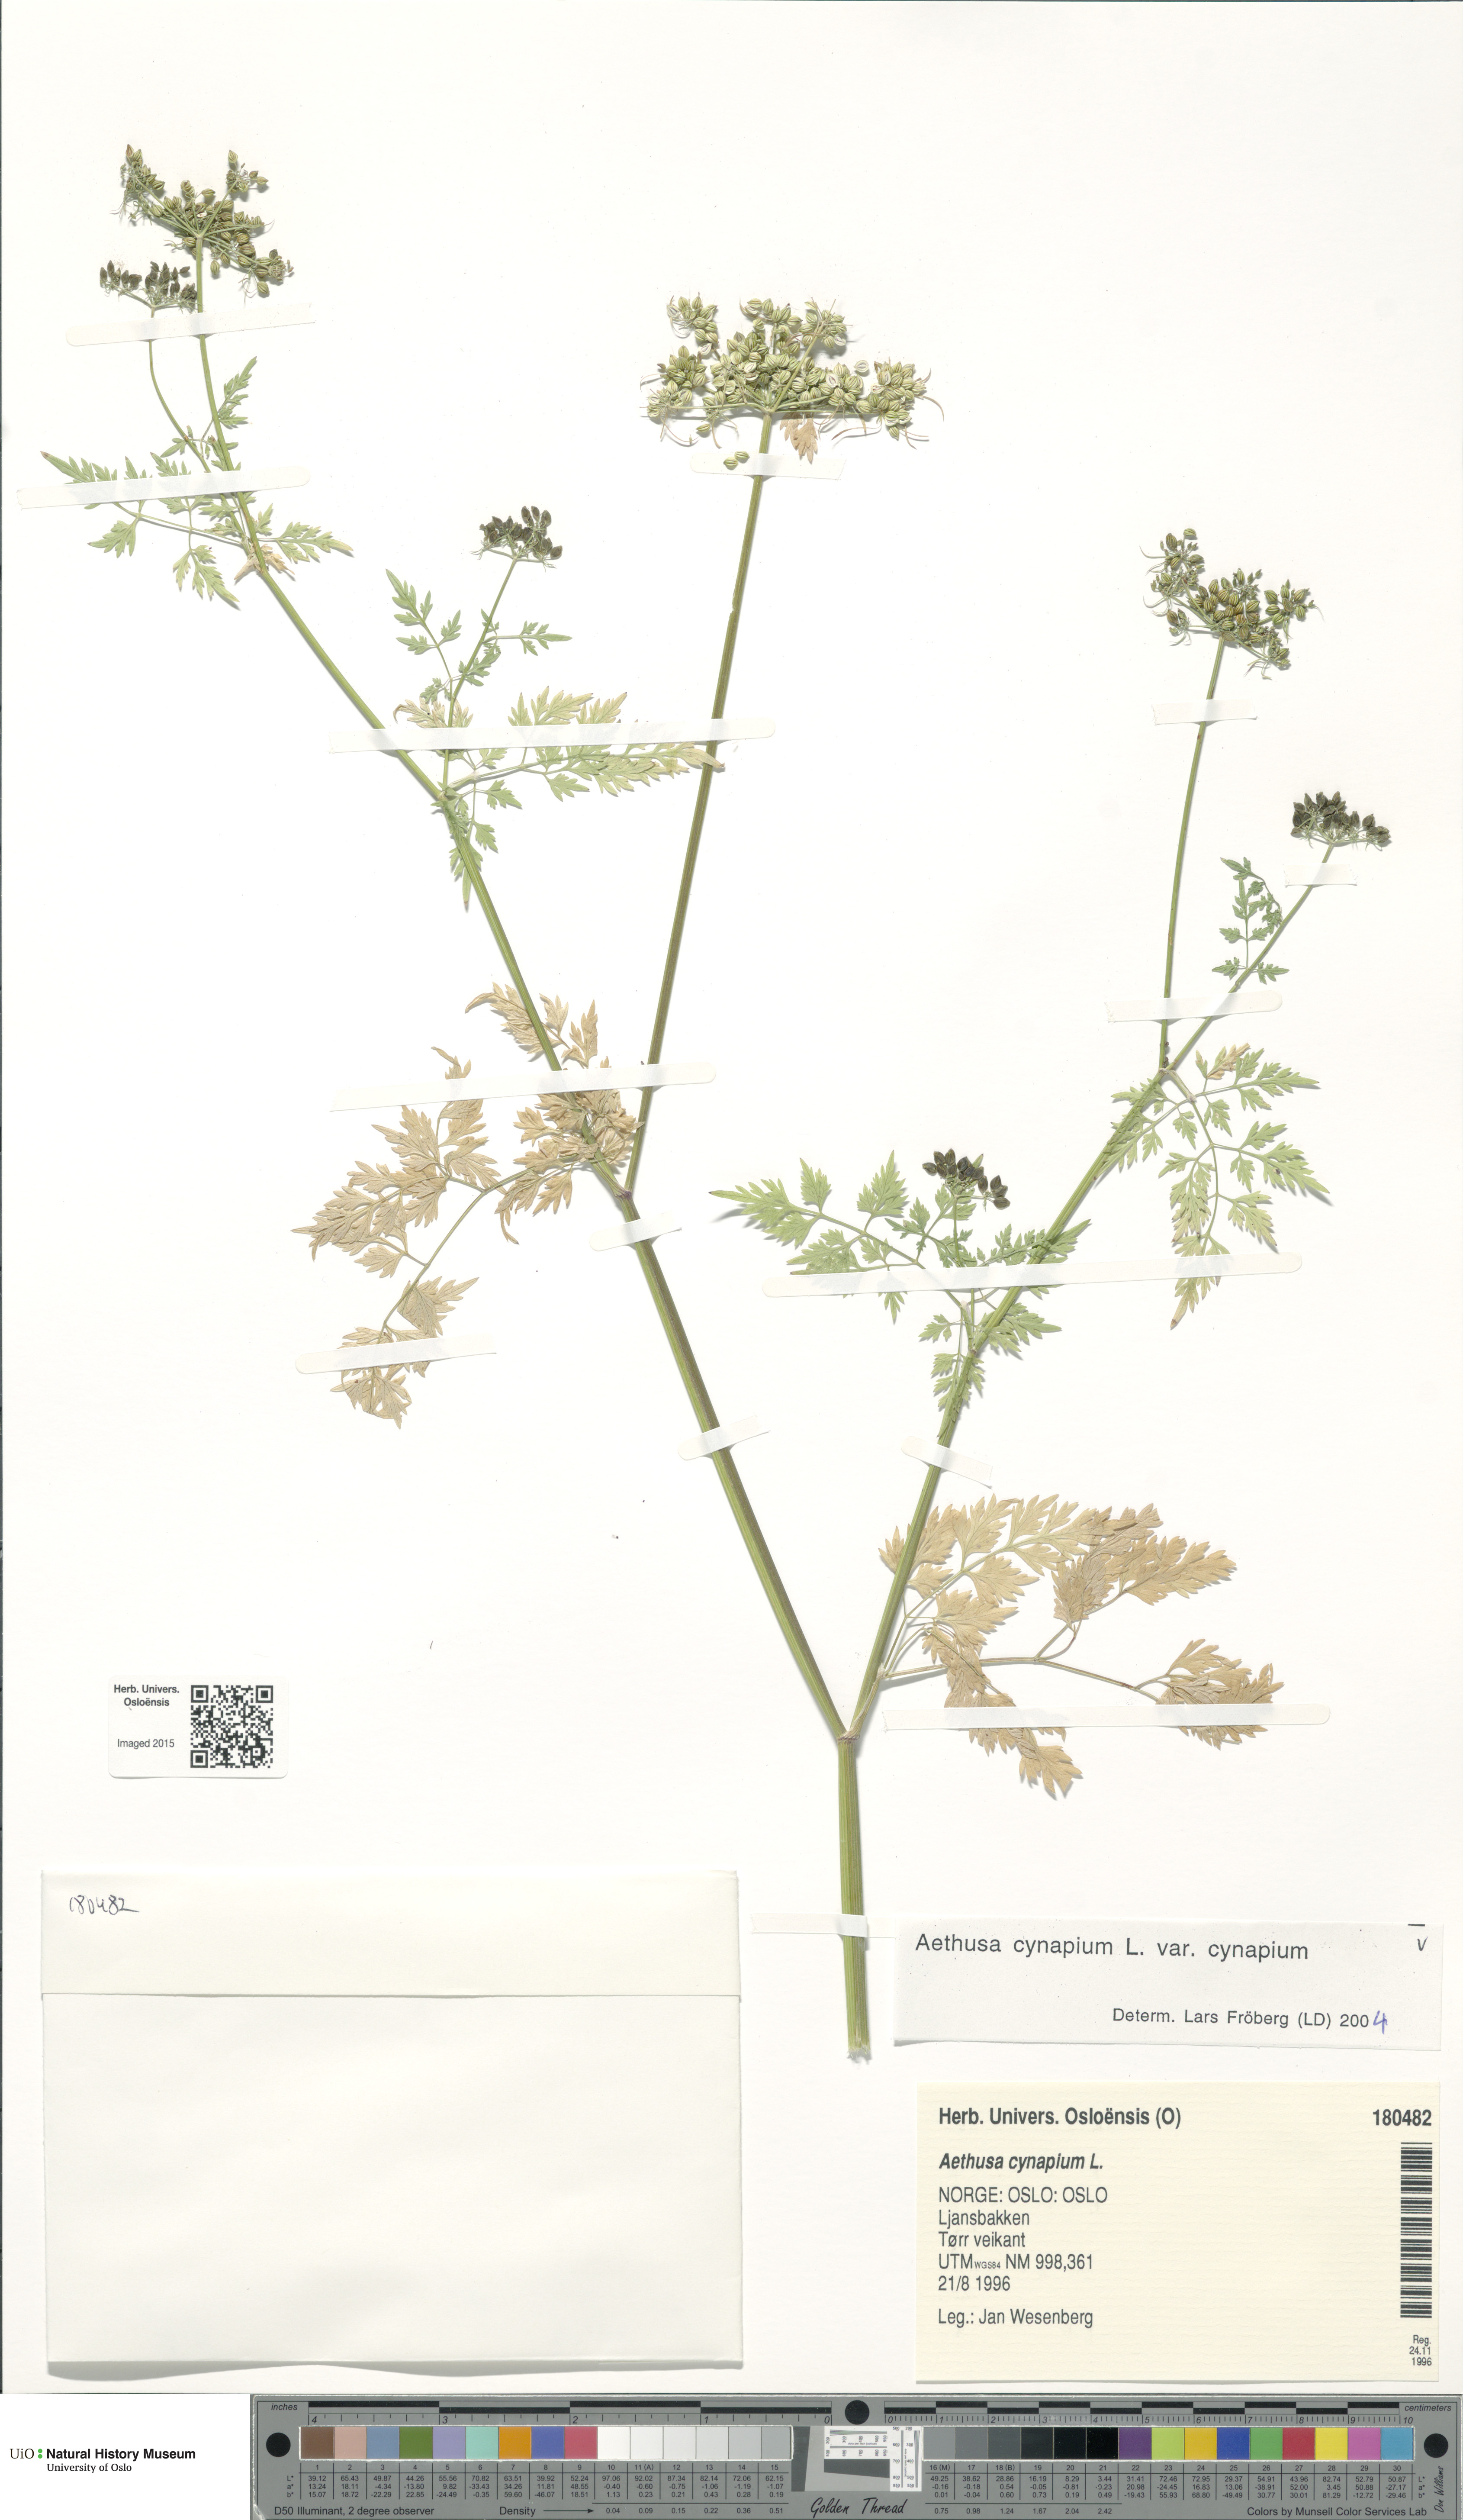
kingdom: Plantae
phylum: Tracheophyta
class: Magnoliopsida
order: Apiales
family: Apiaceae
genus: Aethusa
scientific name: Aethusa cynapium
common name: Fool's parsley
